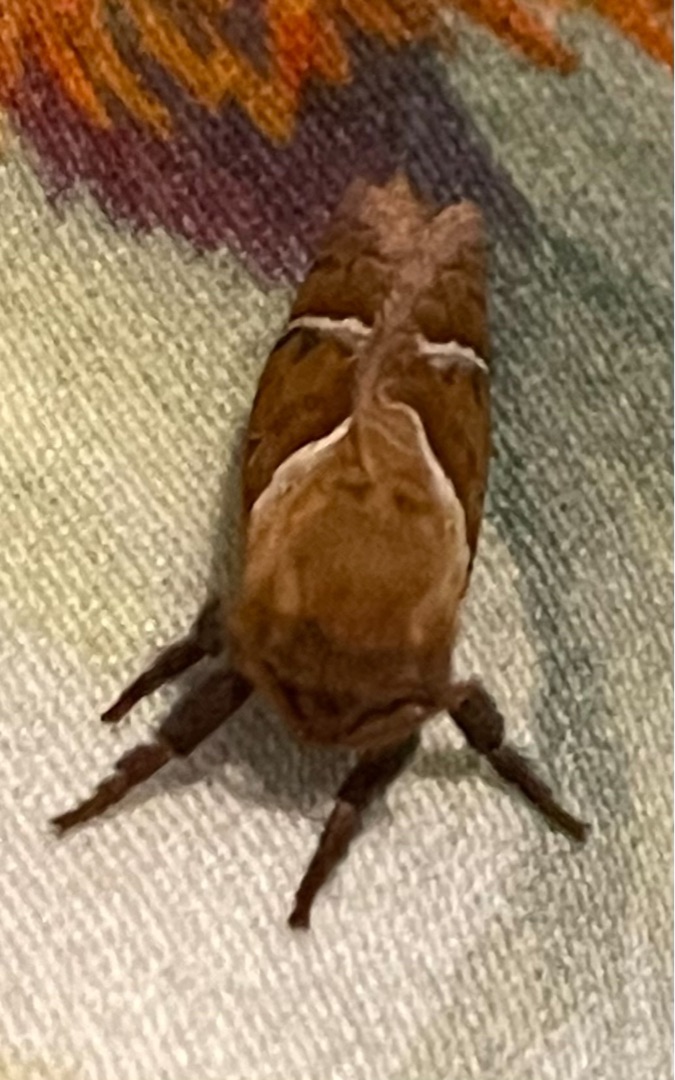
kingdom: Animalia
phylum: Arthropoda
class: Insecta
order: Lepidoptera
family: Hepialidae
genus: Triodia
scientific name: Triodia sylvina
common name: Skræpperodæder
